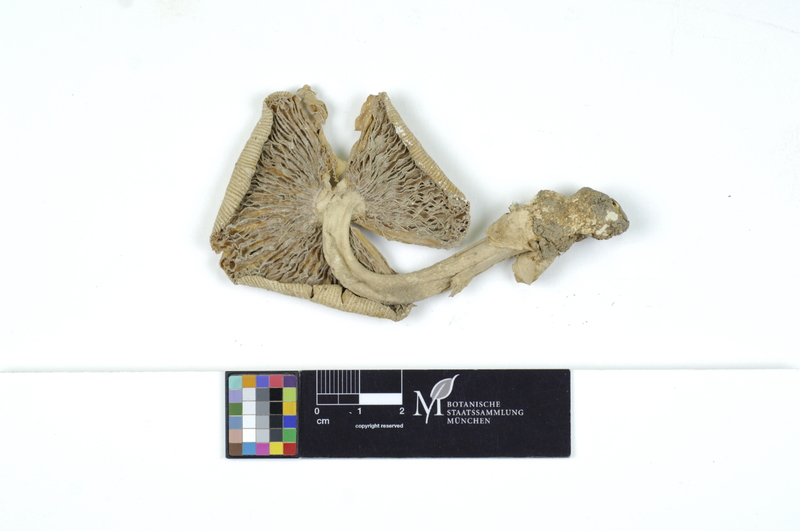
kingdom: Fungi
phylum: Basidiomycota
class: Agaricomycetes
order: Agaricales
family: Amanitaceae
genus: Amanita
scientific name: Amanita thiersii
